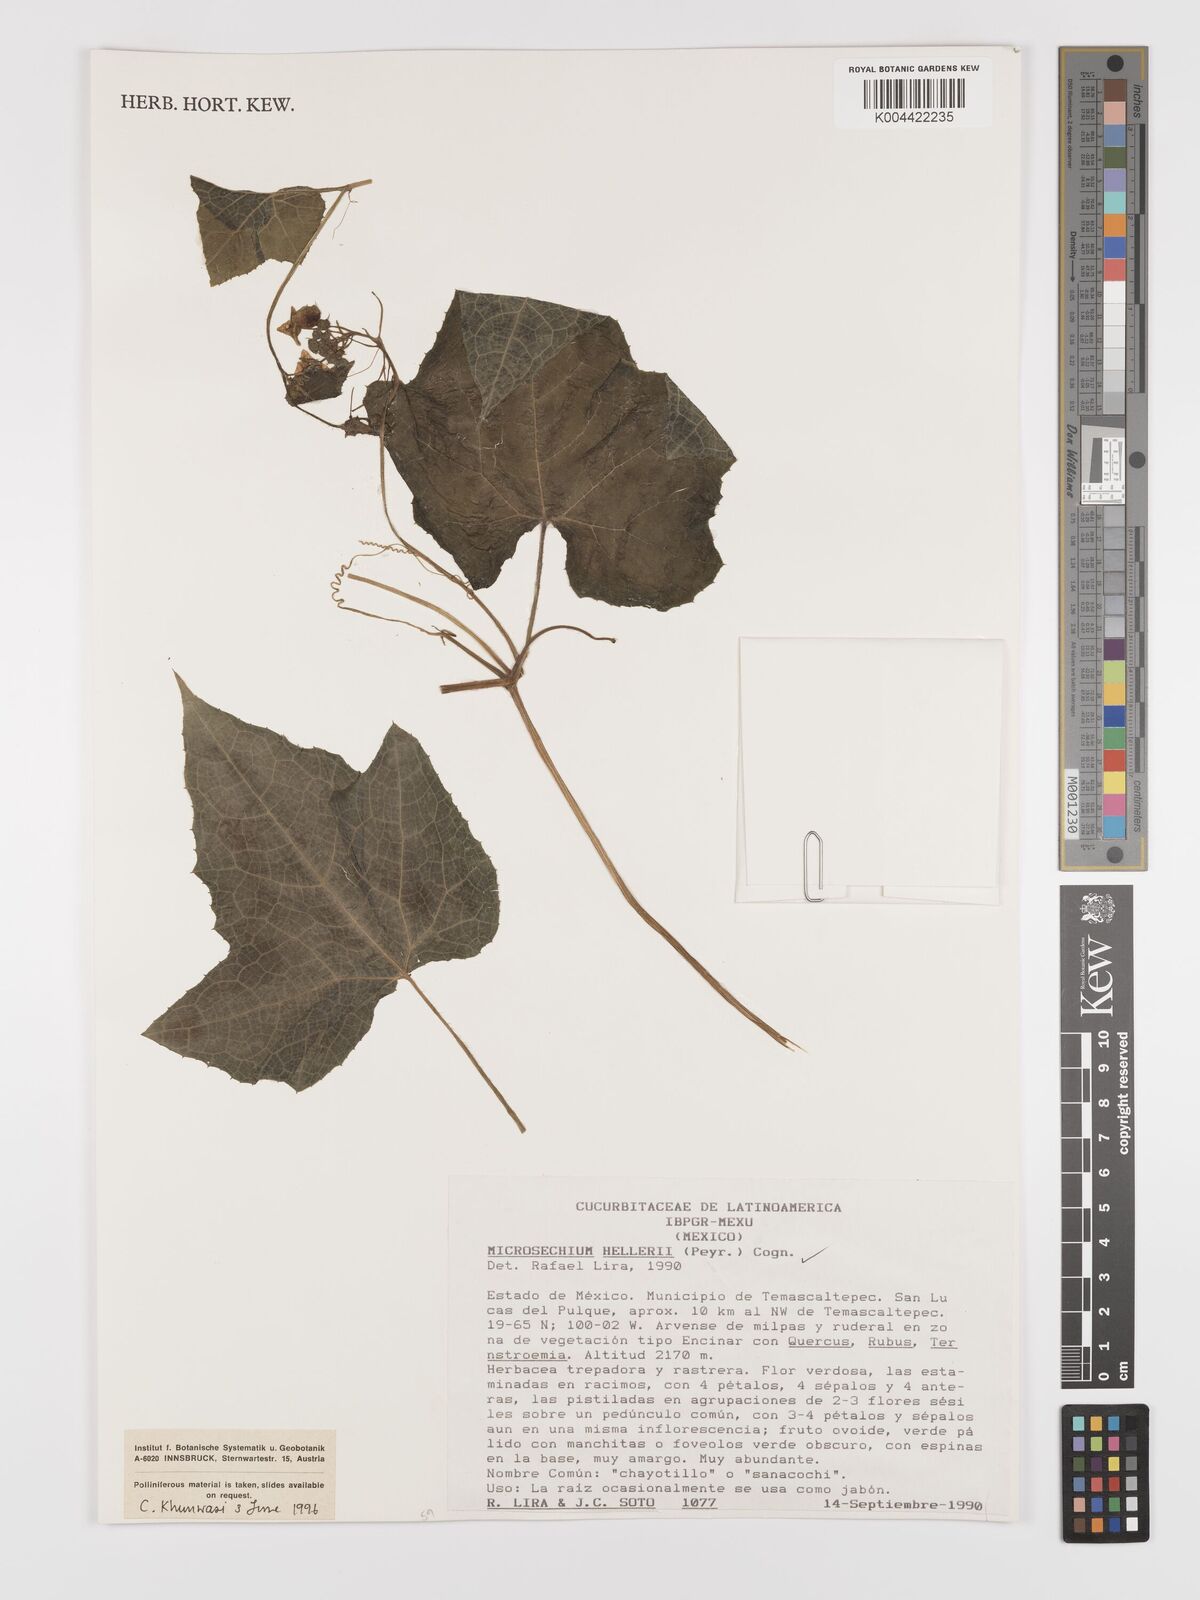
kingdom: Plantae
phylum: Tracheophyta
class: Magnoliopsida
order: Cucurbitales
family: Cucurbitaceae
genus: Microsechium
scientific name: Microsechium palmatum
